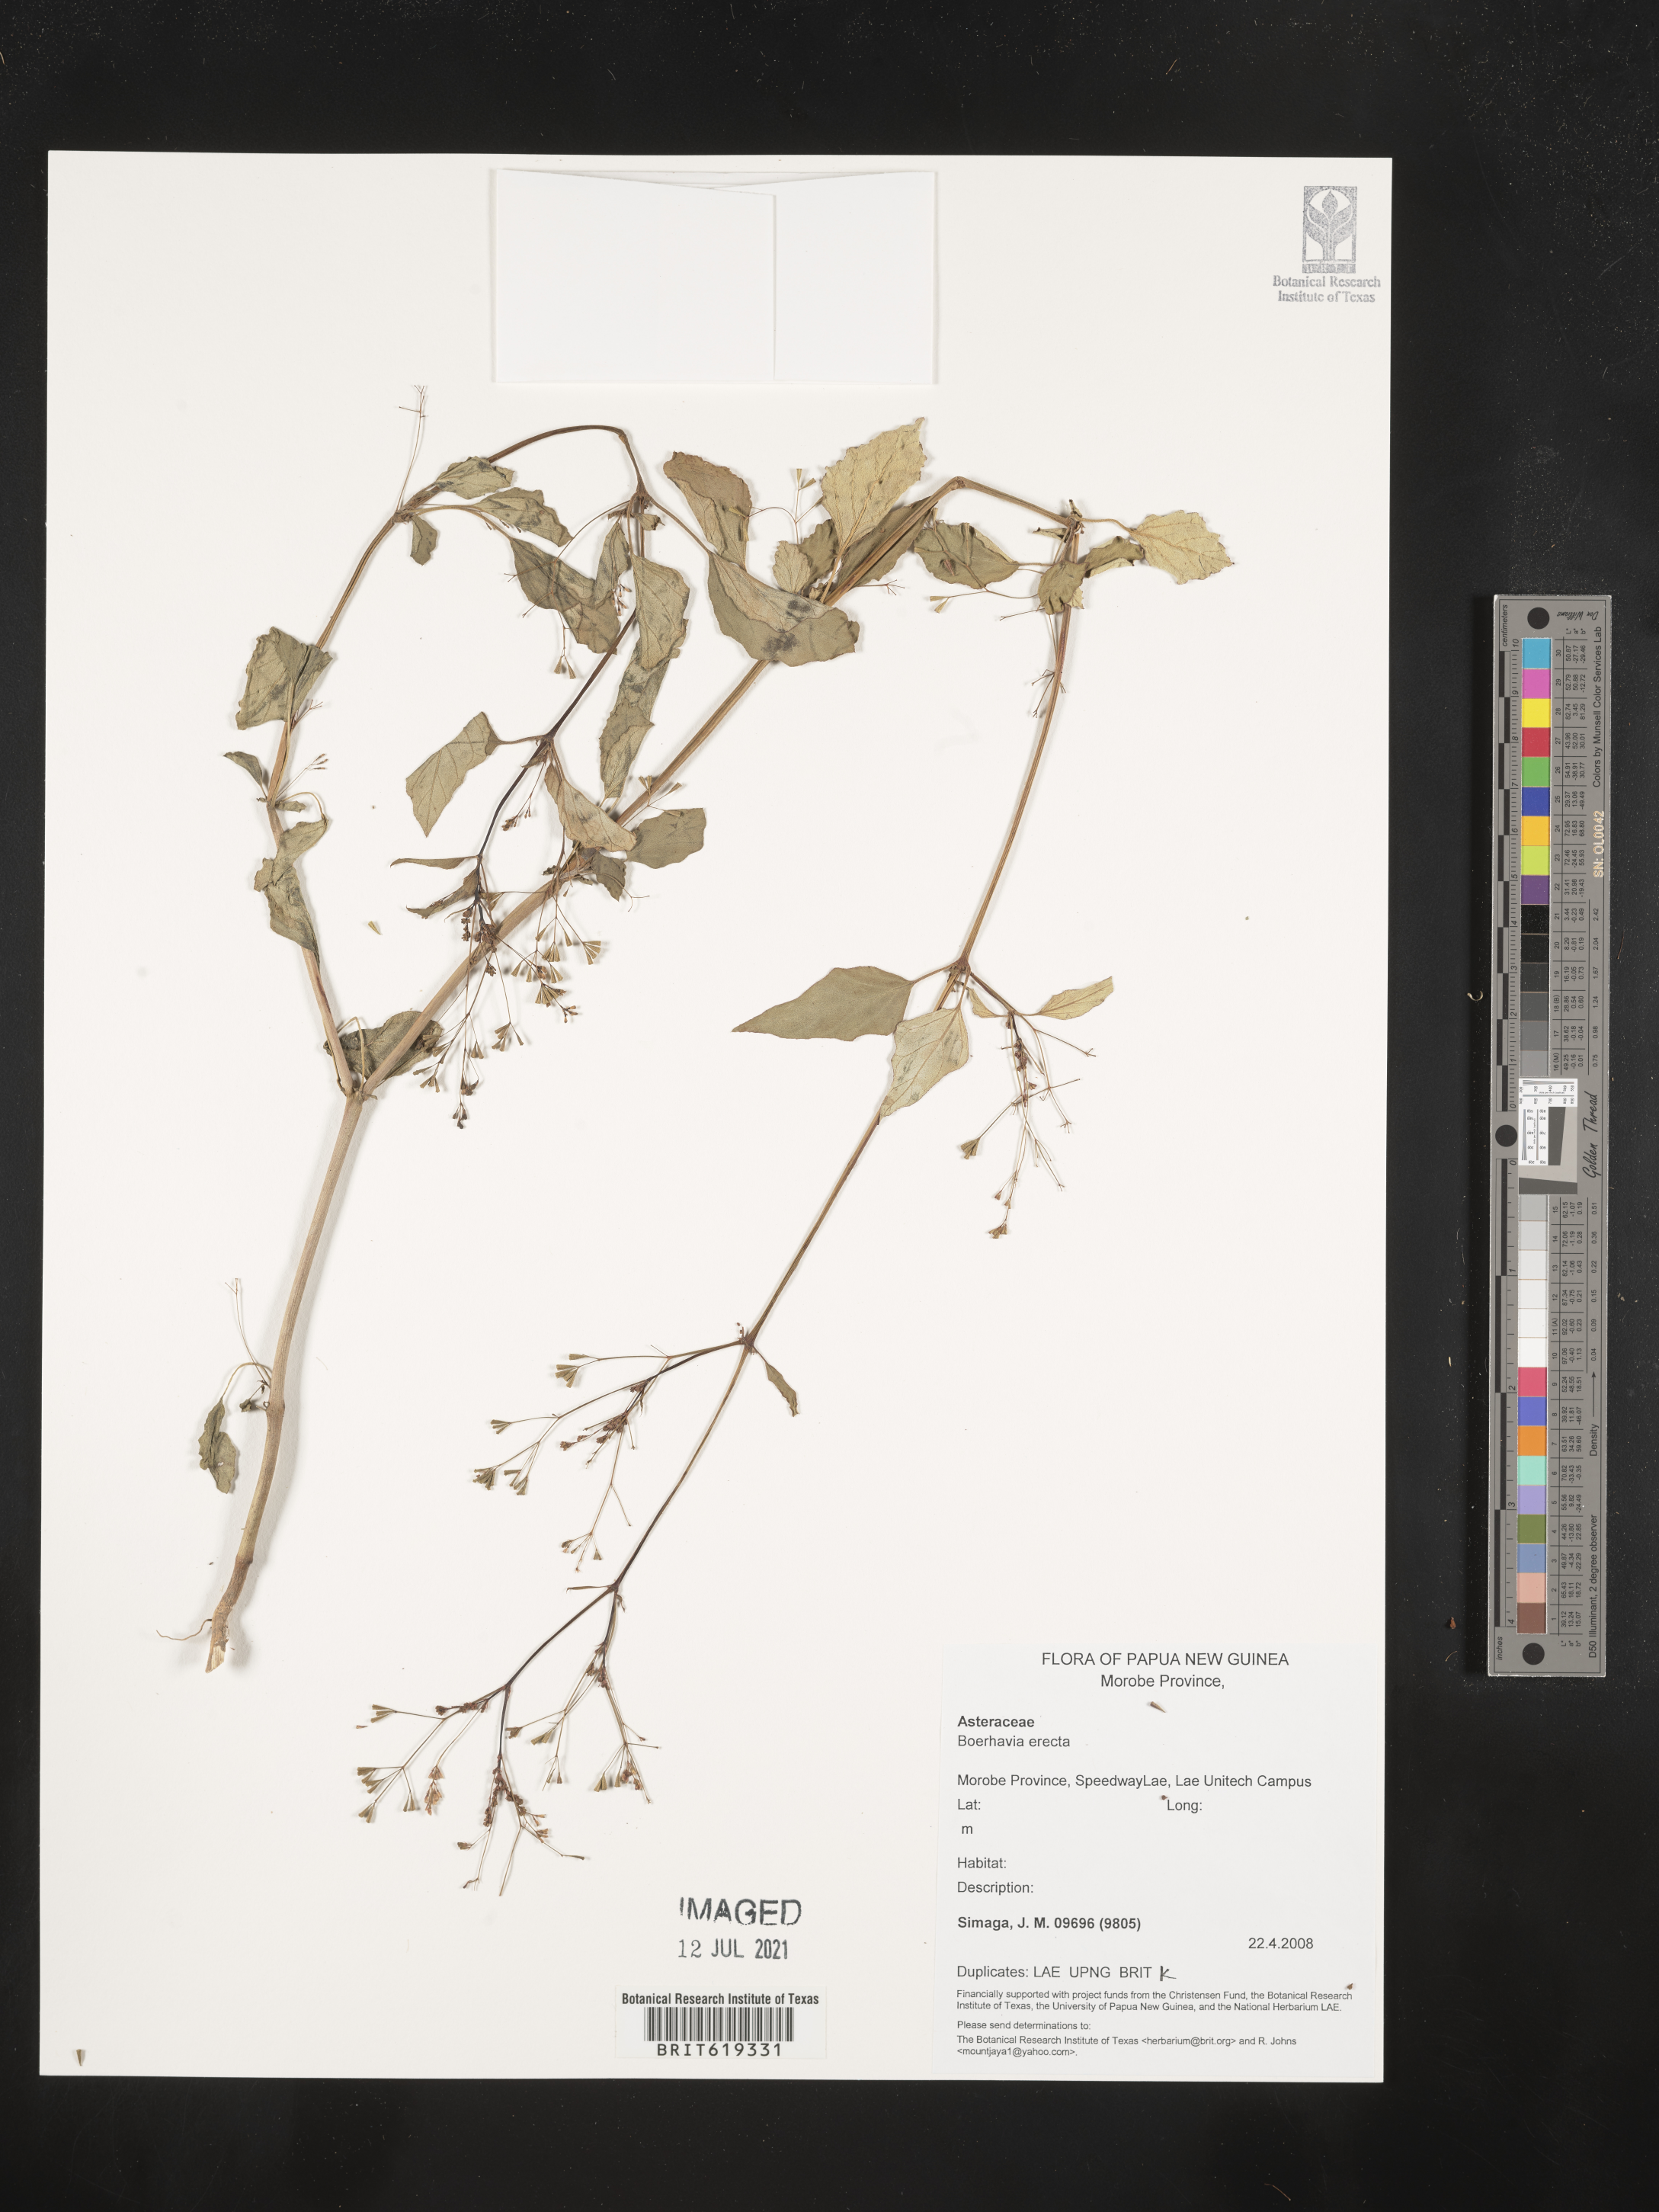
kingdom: Plantae
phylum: Tracheophyta
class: Magnoliopsida
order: Caryophyllales
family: Nyctaginaceae
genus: Boerhavia
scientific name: Boerhavia erecta
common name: Erect spiderling
